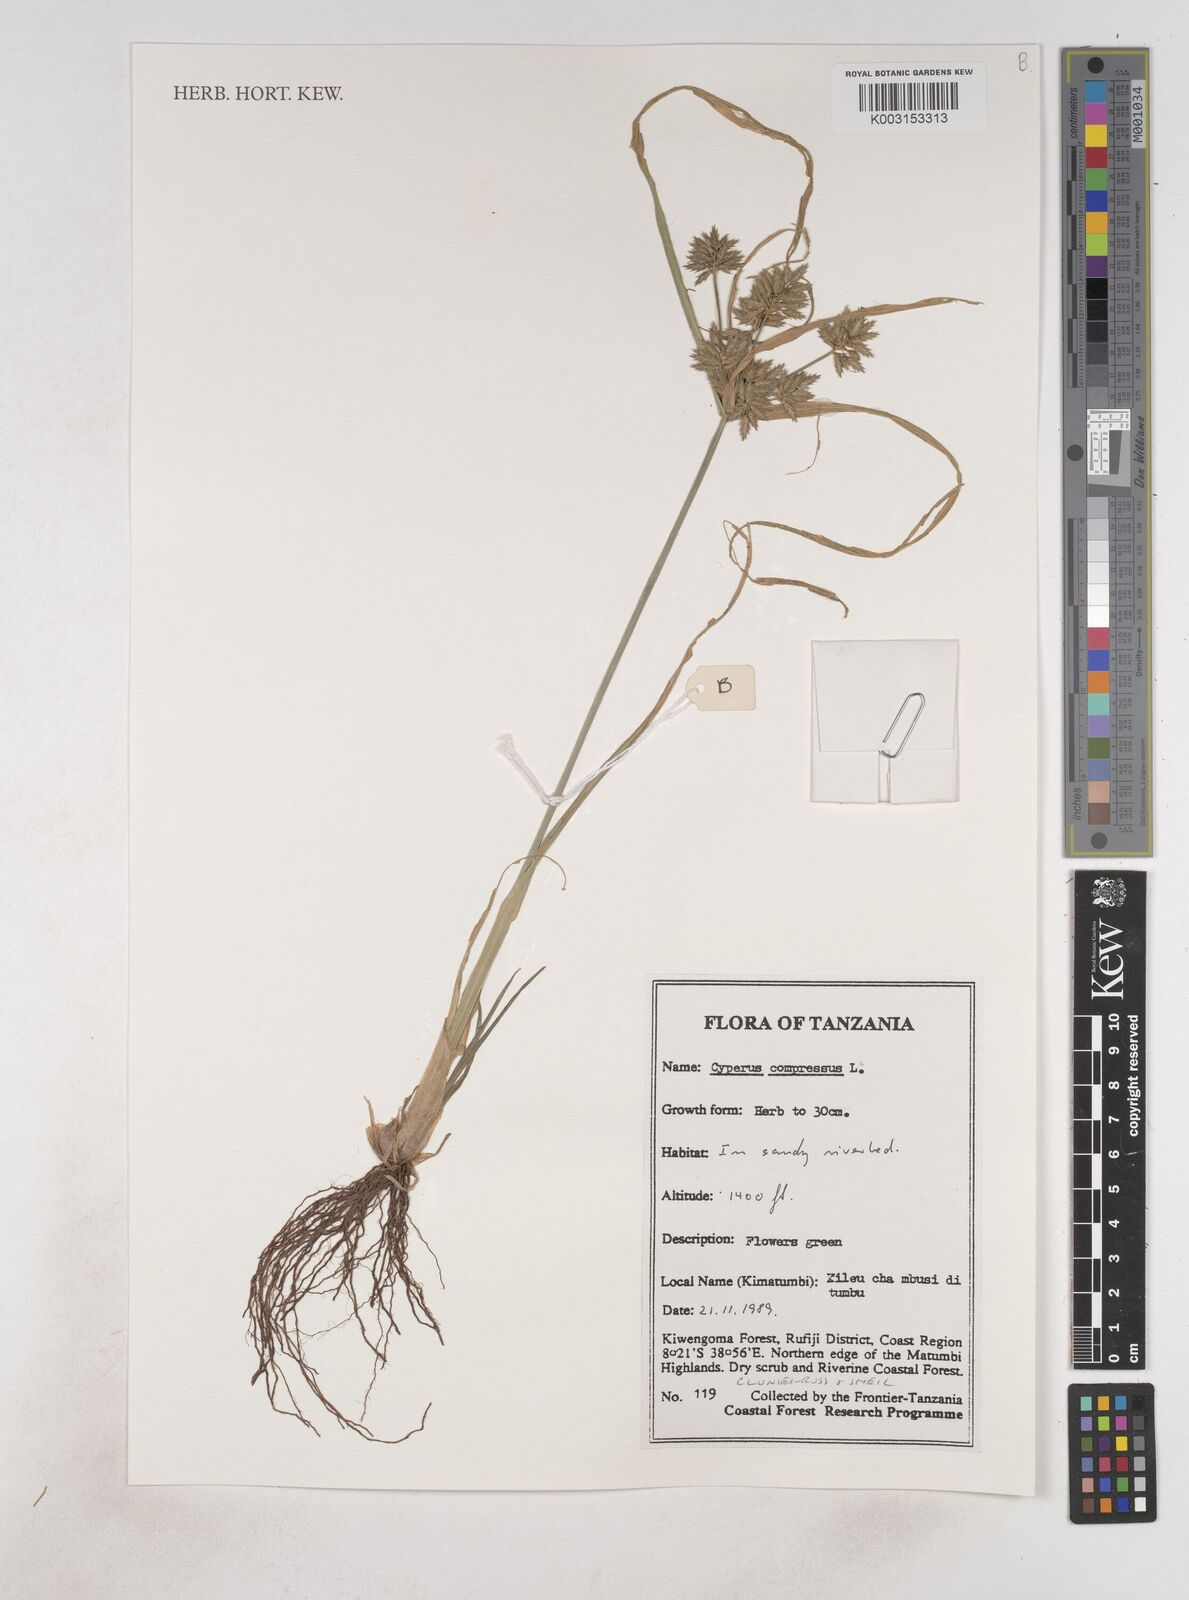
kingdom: Plantae
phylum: Tracheophyta
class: Liliopsida
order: Poales
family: Cyperaceae
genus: Cyperus
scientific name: Cyperus compressus
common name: Poorland flatsedge
